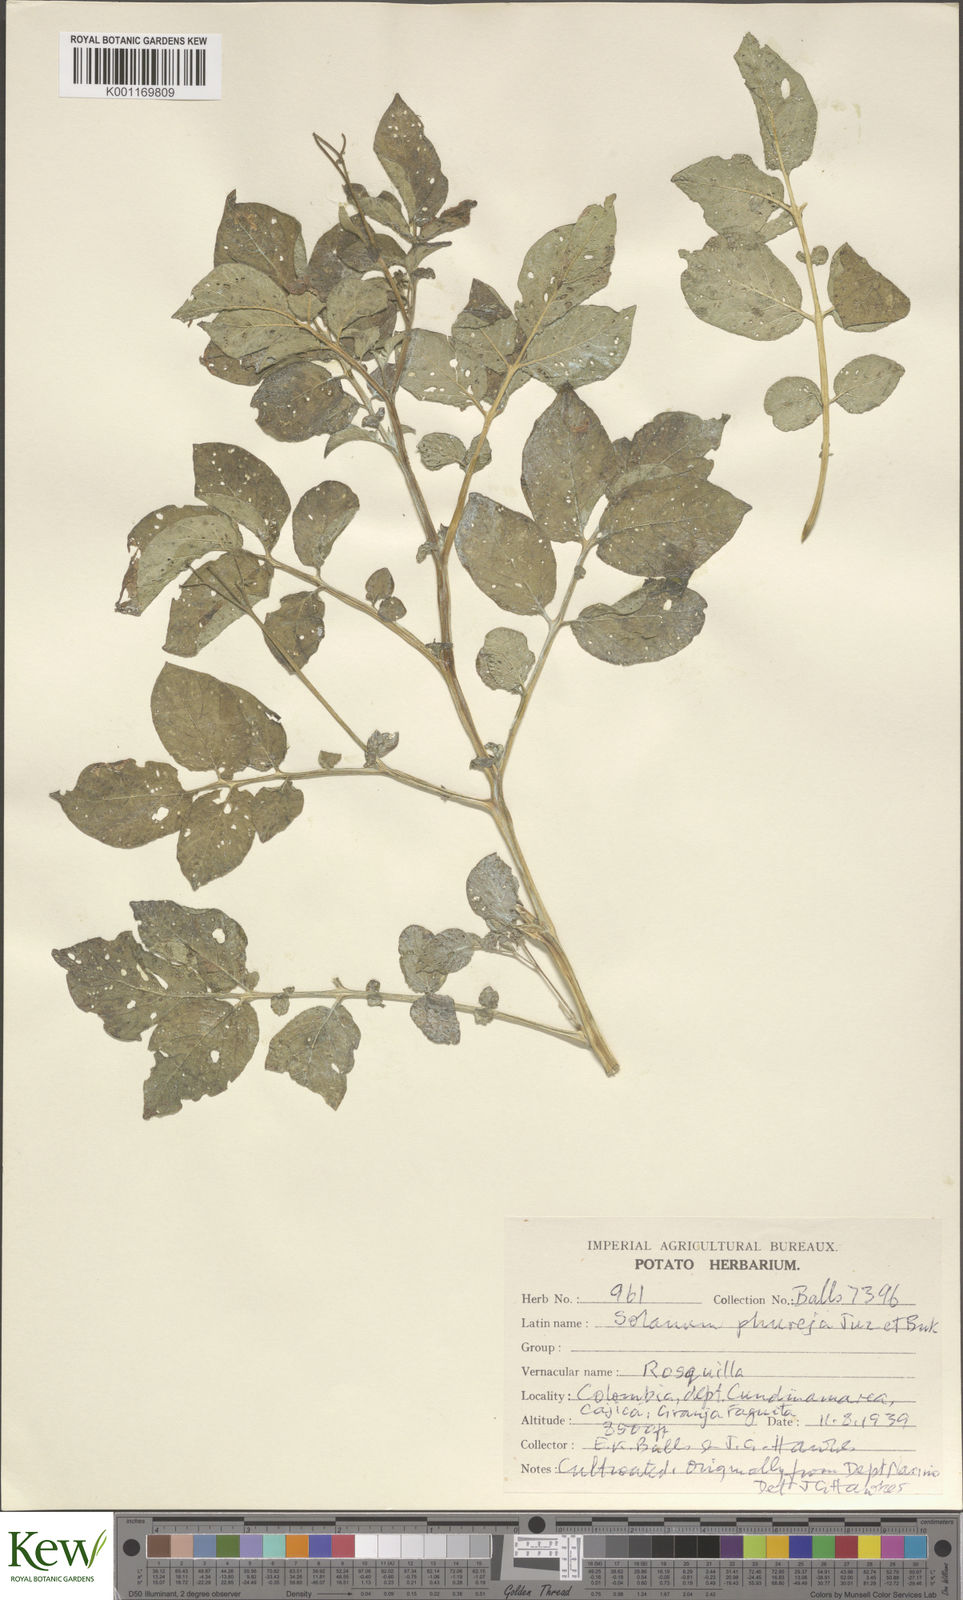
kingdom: Plantae
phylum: Tracheophyta
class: Magnoliopsida
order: Solanales
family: Solanaceae
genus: Solanum
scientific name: Solanum tuberosum
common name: Potato
